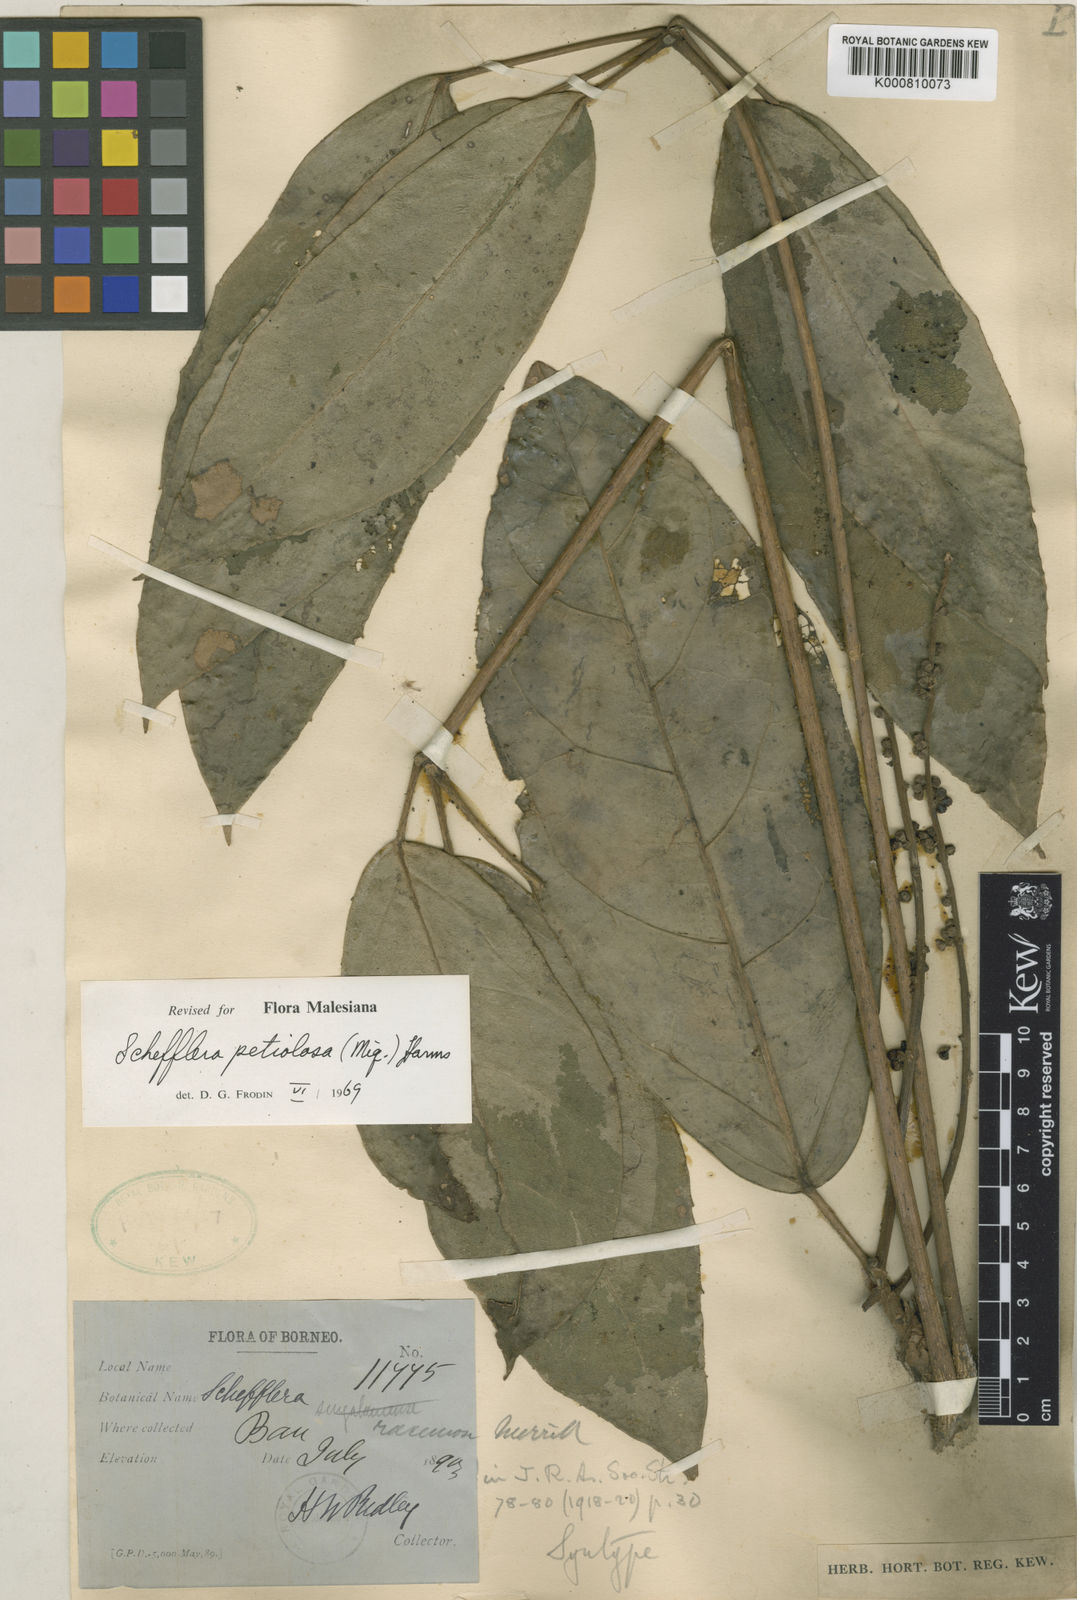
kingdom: Plantae
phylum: Tracheophyta
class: Magnoliopsida
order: Apiales
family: Araliaceae
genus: Heptapleurum
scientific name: Heptapleurum petiolosum
